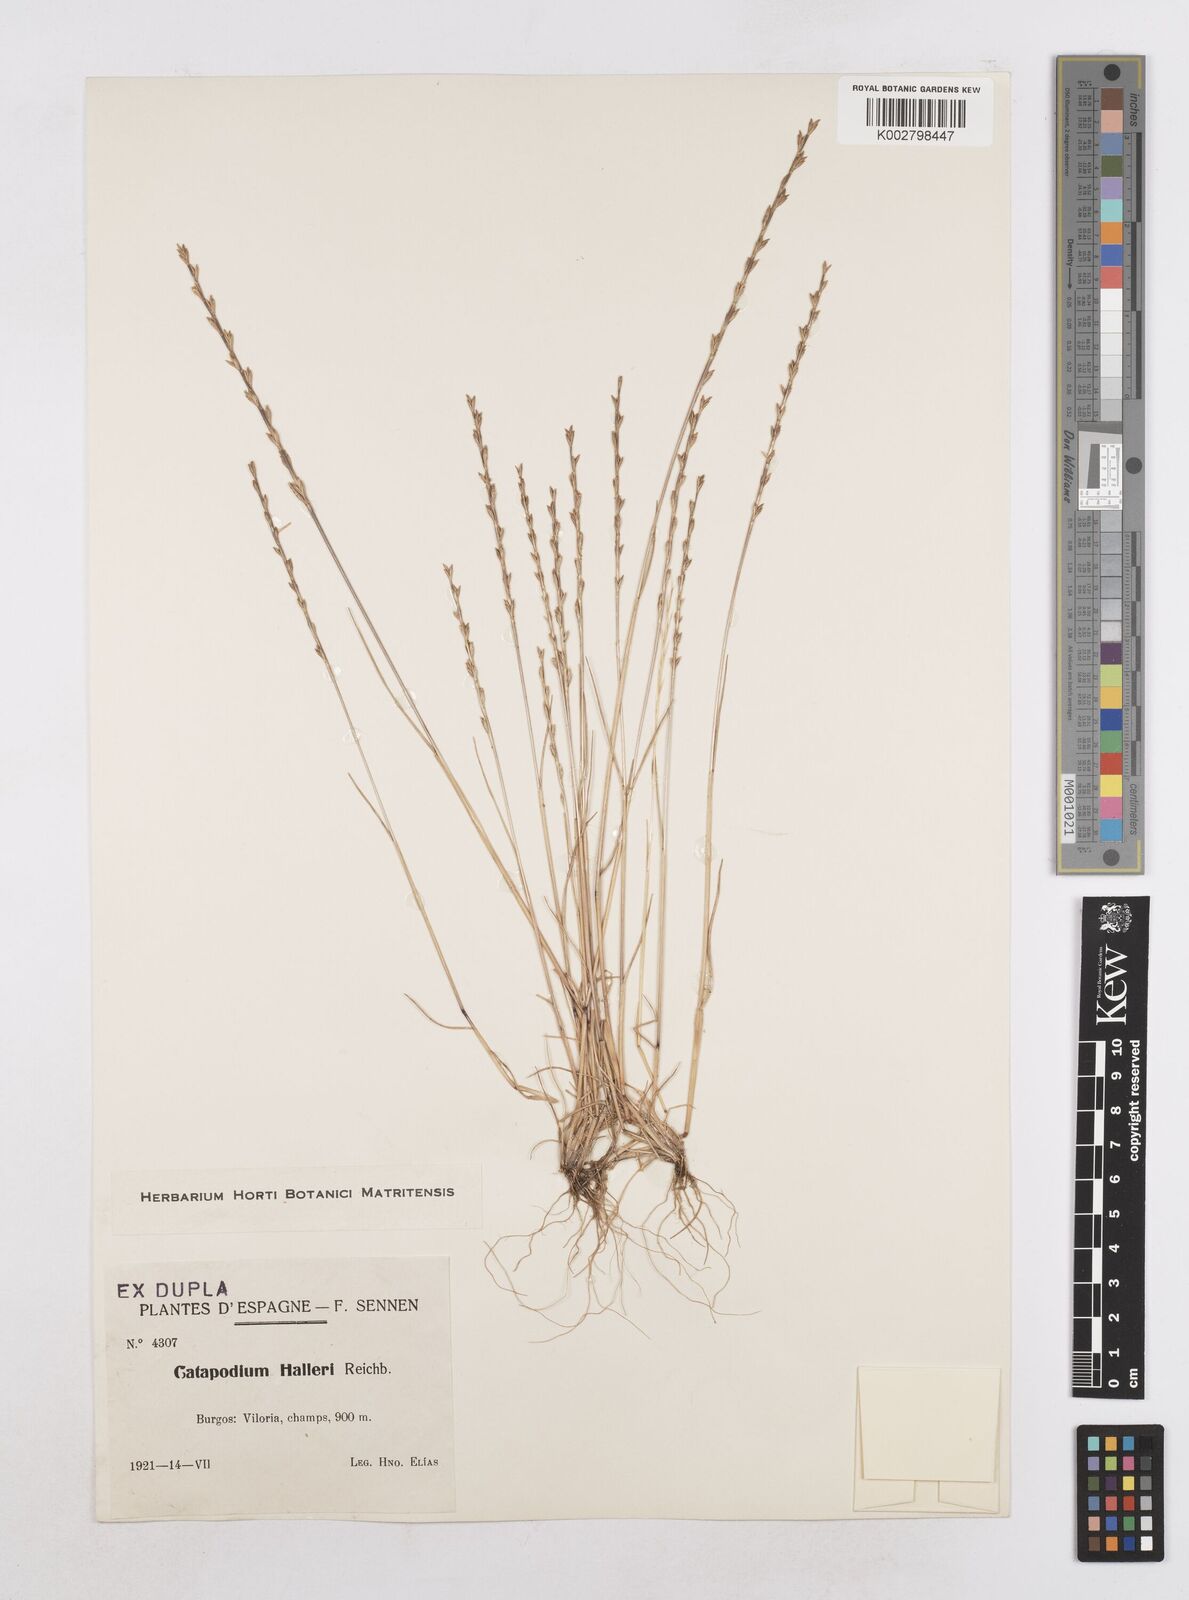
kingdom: Plantae
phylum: Tracheophyta
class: Liliopsida
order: Poales
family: Poaceae
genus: Festuca
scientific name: Festuca lachenalii
